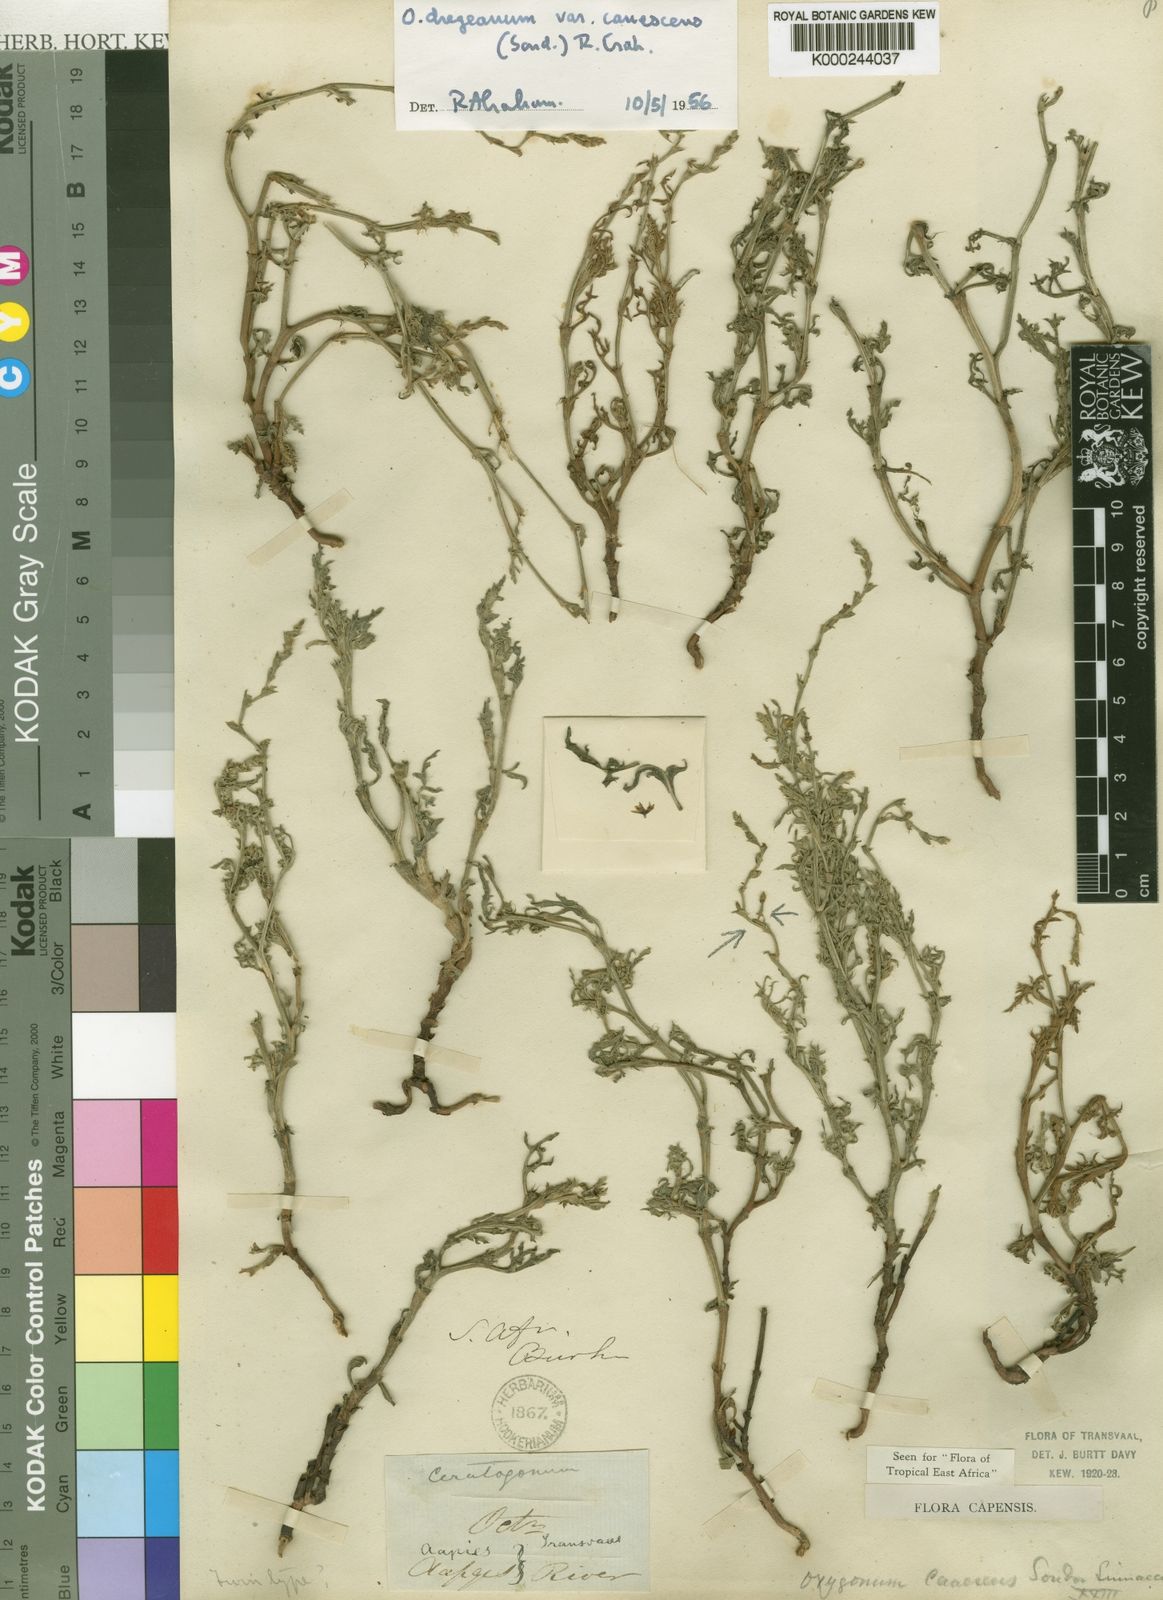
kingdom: Plantae
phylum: Tracheophyta
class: Magnoliopsida
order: Caryophyllales
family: Polygonaceae
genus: Oxygonum
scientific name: Oxygonum dregeanum
